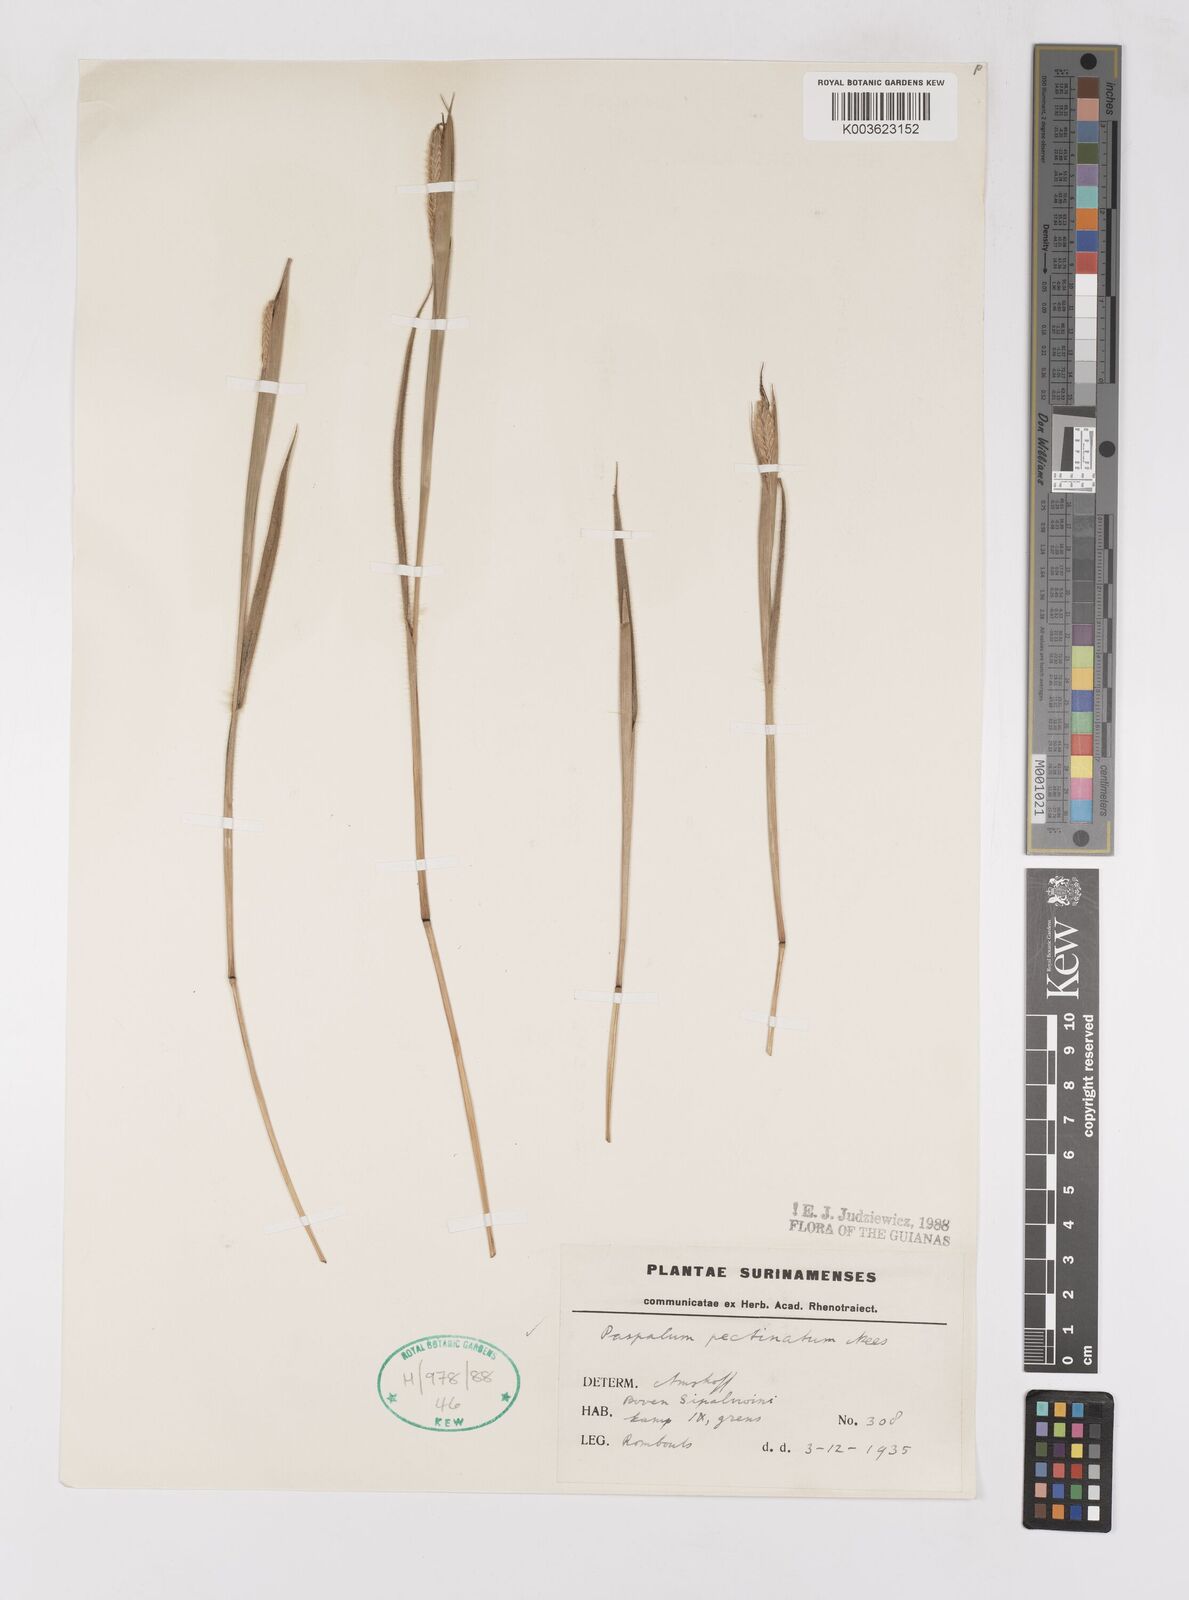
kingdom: Plantae
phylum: Tracheophyta
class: Liliopsida
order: Poales
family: Poaceae
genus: Paspalum
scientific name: Paspalum pectinatum
